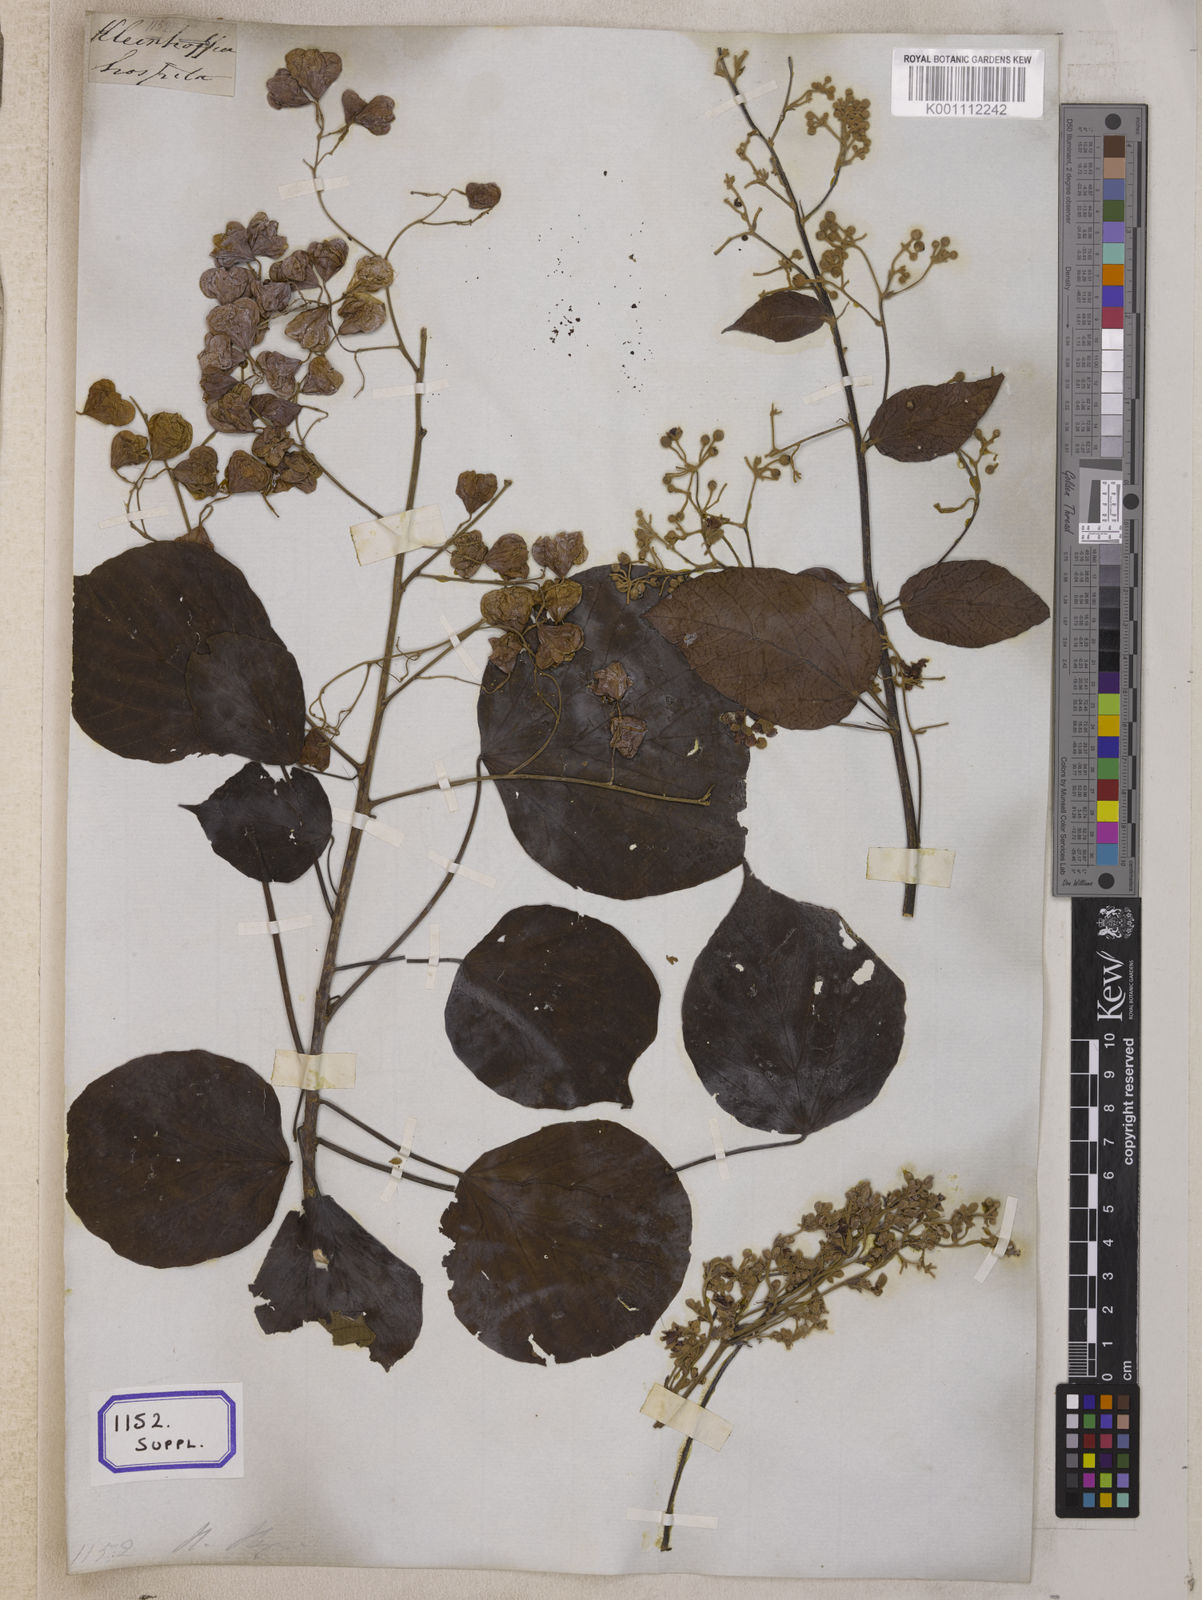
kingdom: Plantae
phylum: Tracheophyta
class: Magnoliopsida
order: Malvales
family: Malvaceae
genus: Kleinhovia
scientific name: Kleinhovia hospita
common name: Guest-tree
